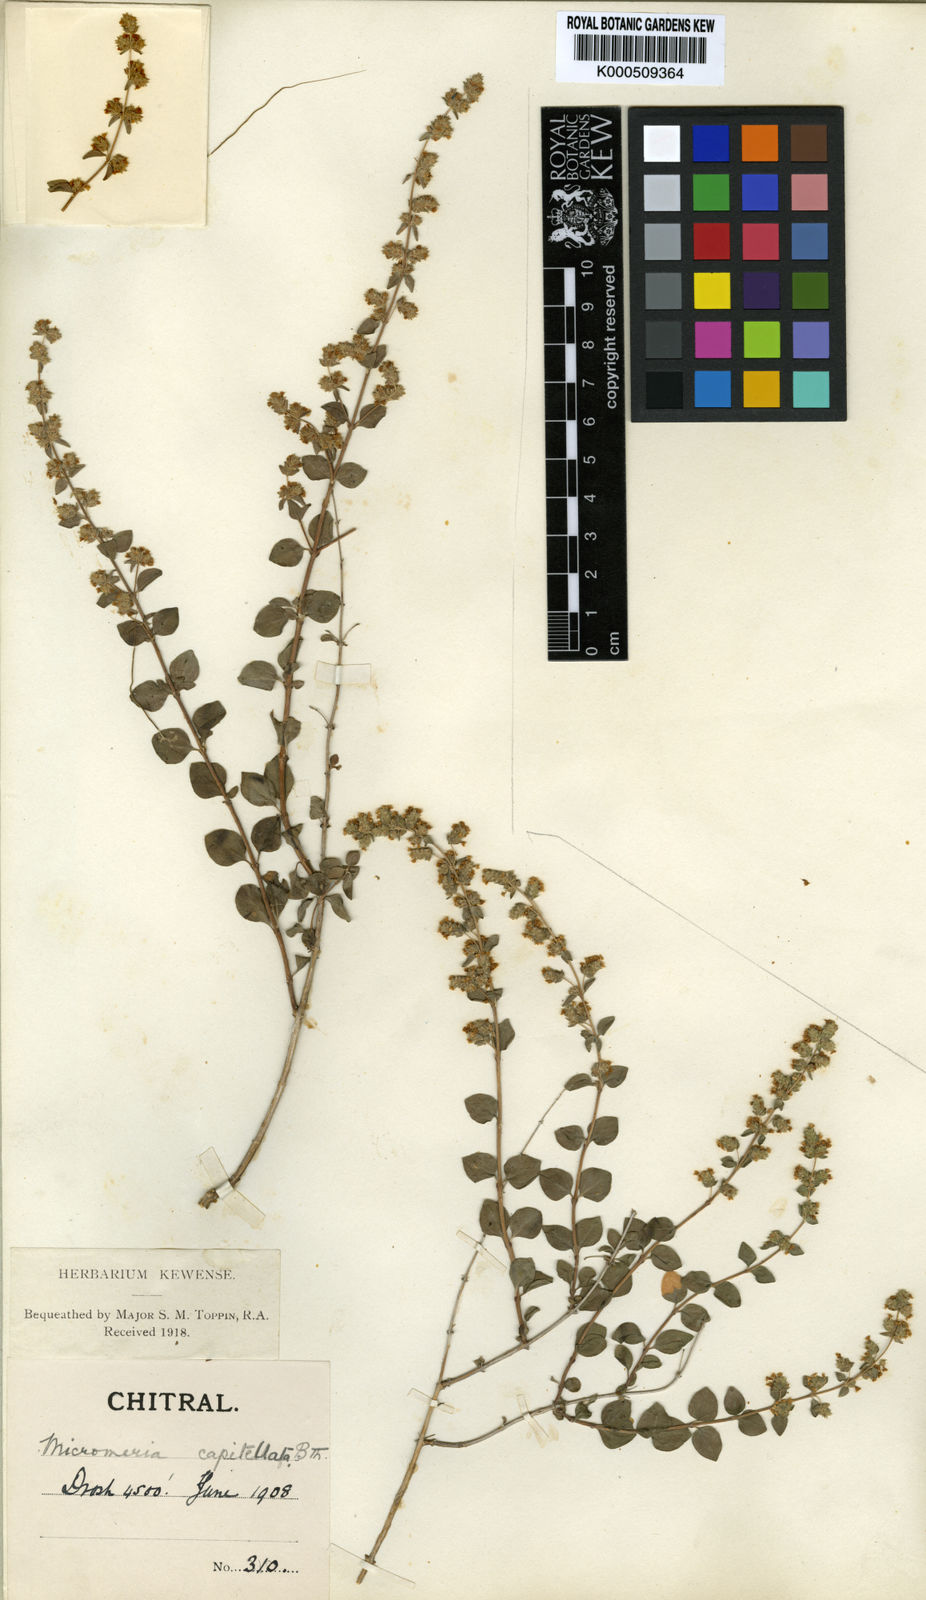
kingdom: Plantae
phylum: Tracheophyta
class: Magnoliopsida
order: Lamiales
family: Lamiaceae
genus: Zataria
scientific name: Zataria multiflora
